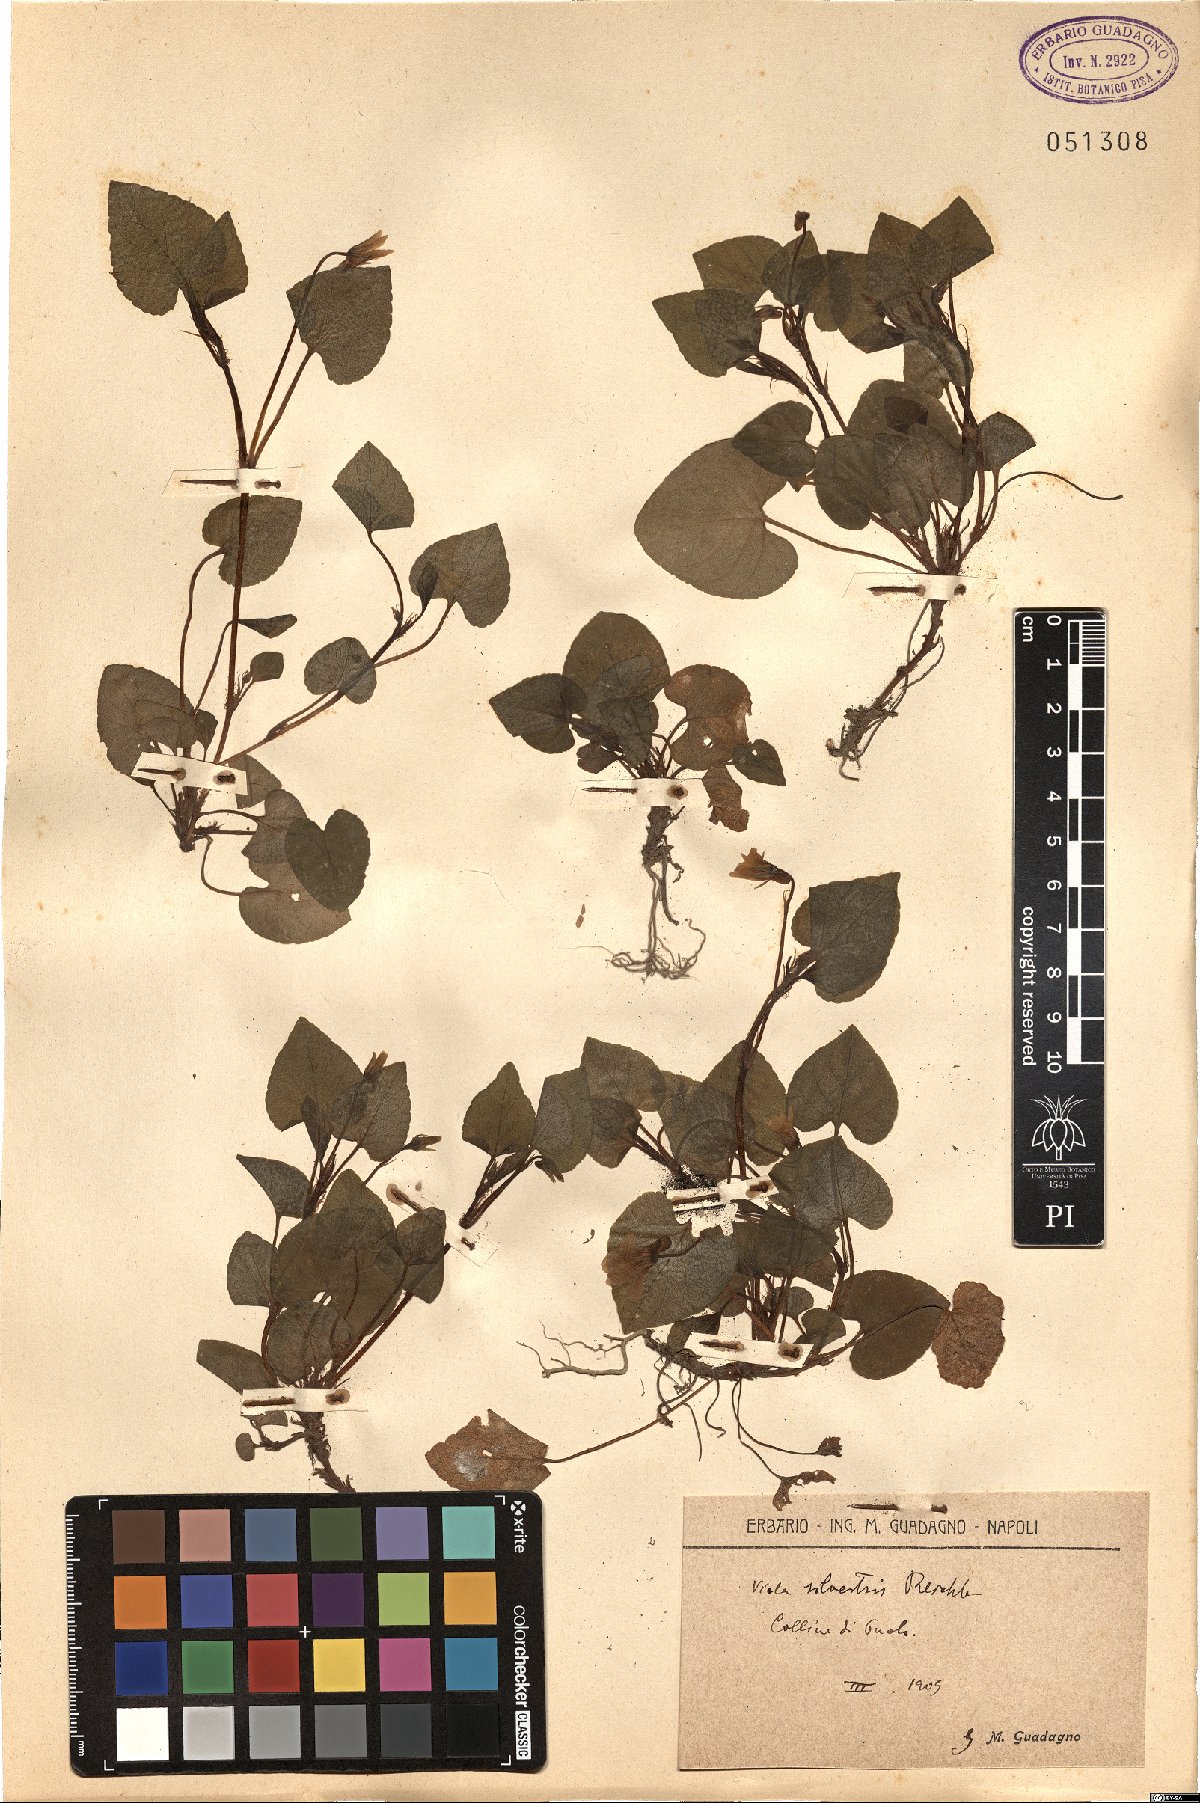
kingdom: Plantae
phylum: Tracheophyta
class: Magnoliopsida
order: Malpighiales
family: Violaceae
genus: Viola
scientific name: Viola canina
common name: Heath dog-violet
